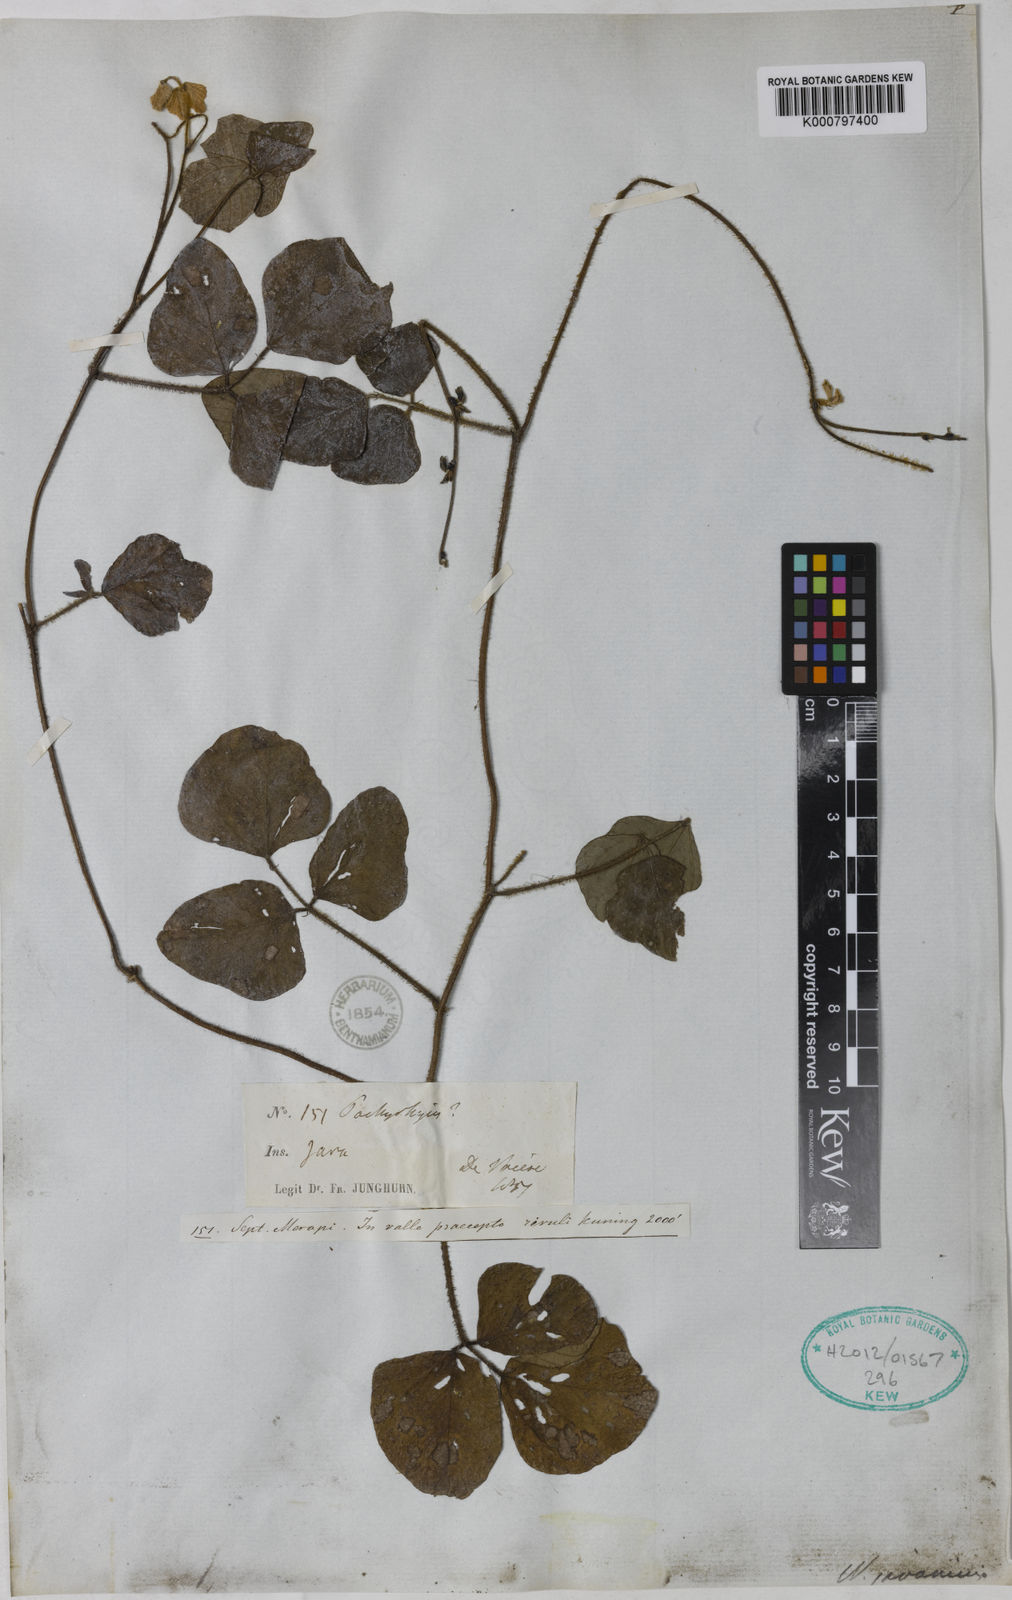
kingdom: Plantae
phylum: Tracheophyta
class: Magnoliopsida
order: Fabales
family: Fabaceae
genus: Neustanthus
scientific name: Neustanthus phaseoloides
